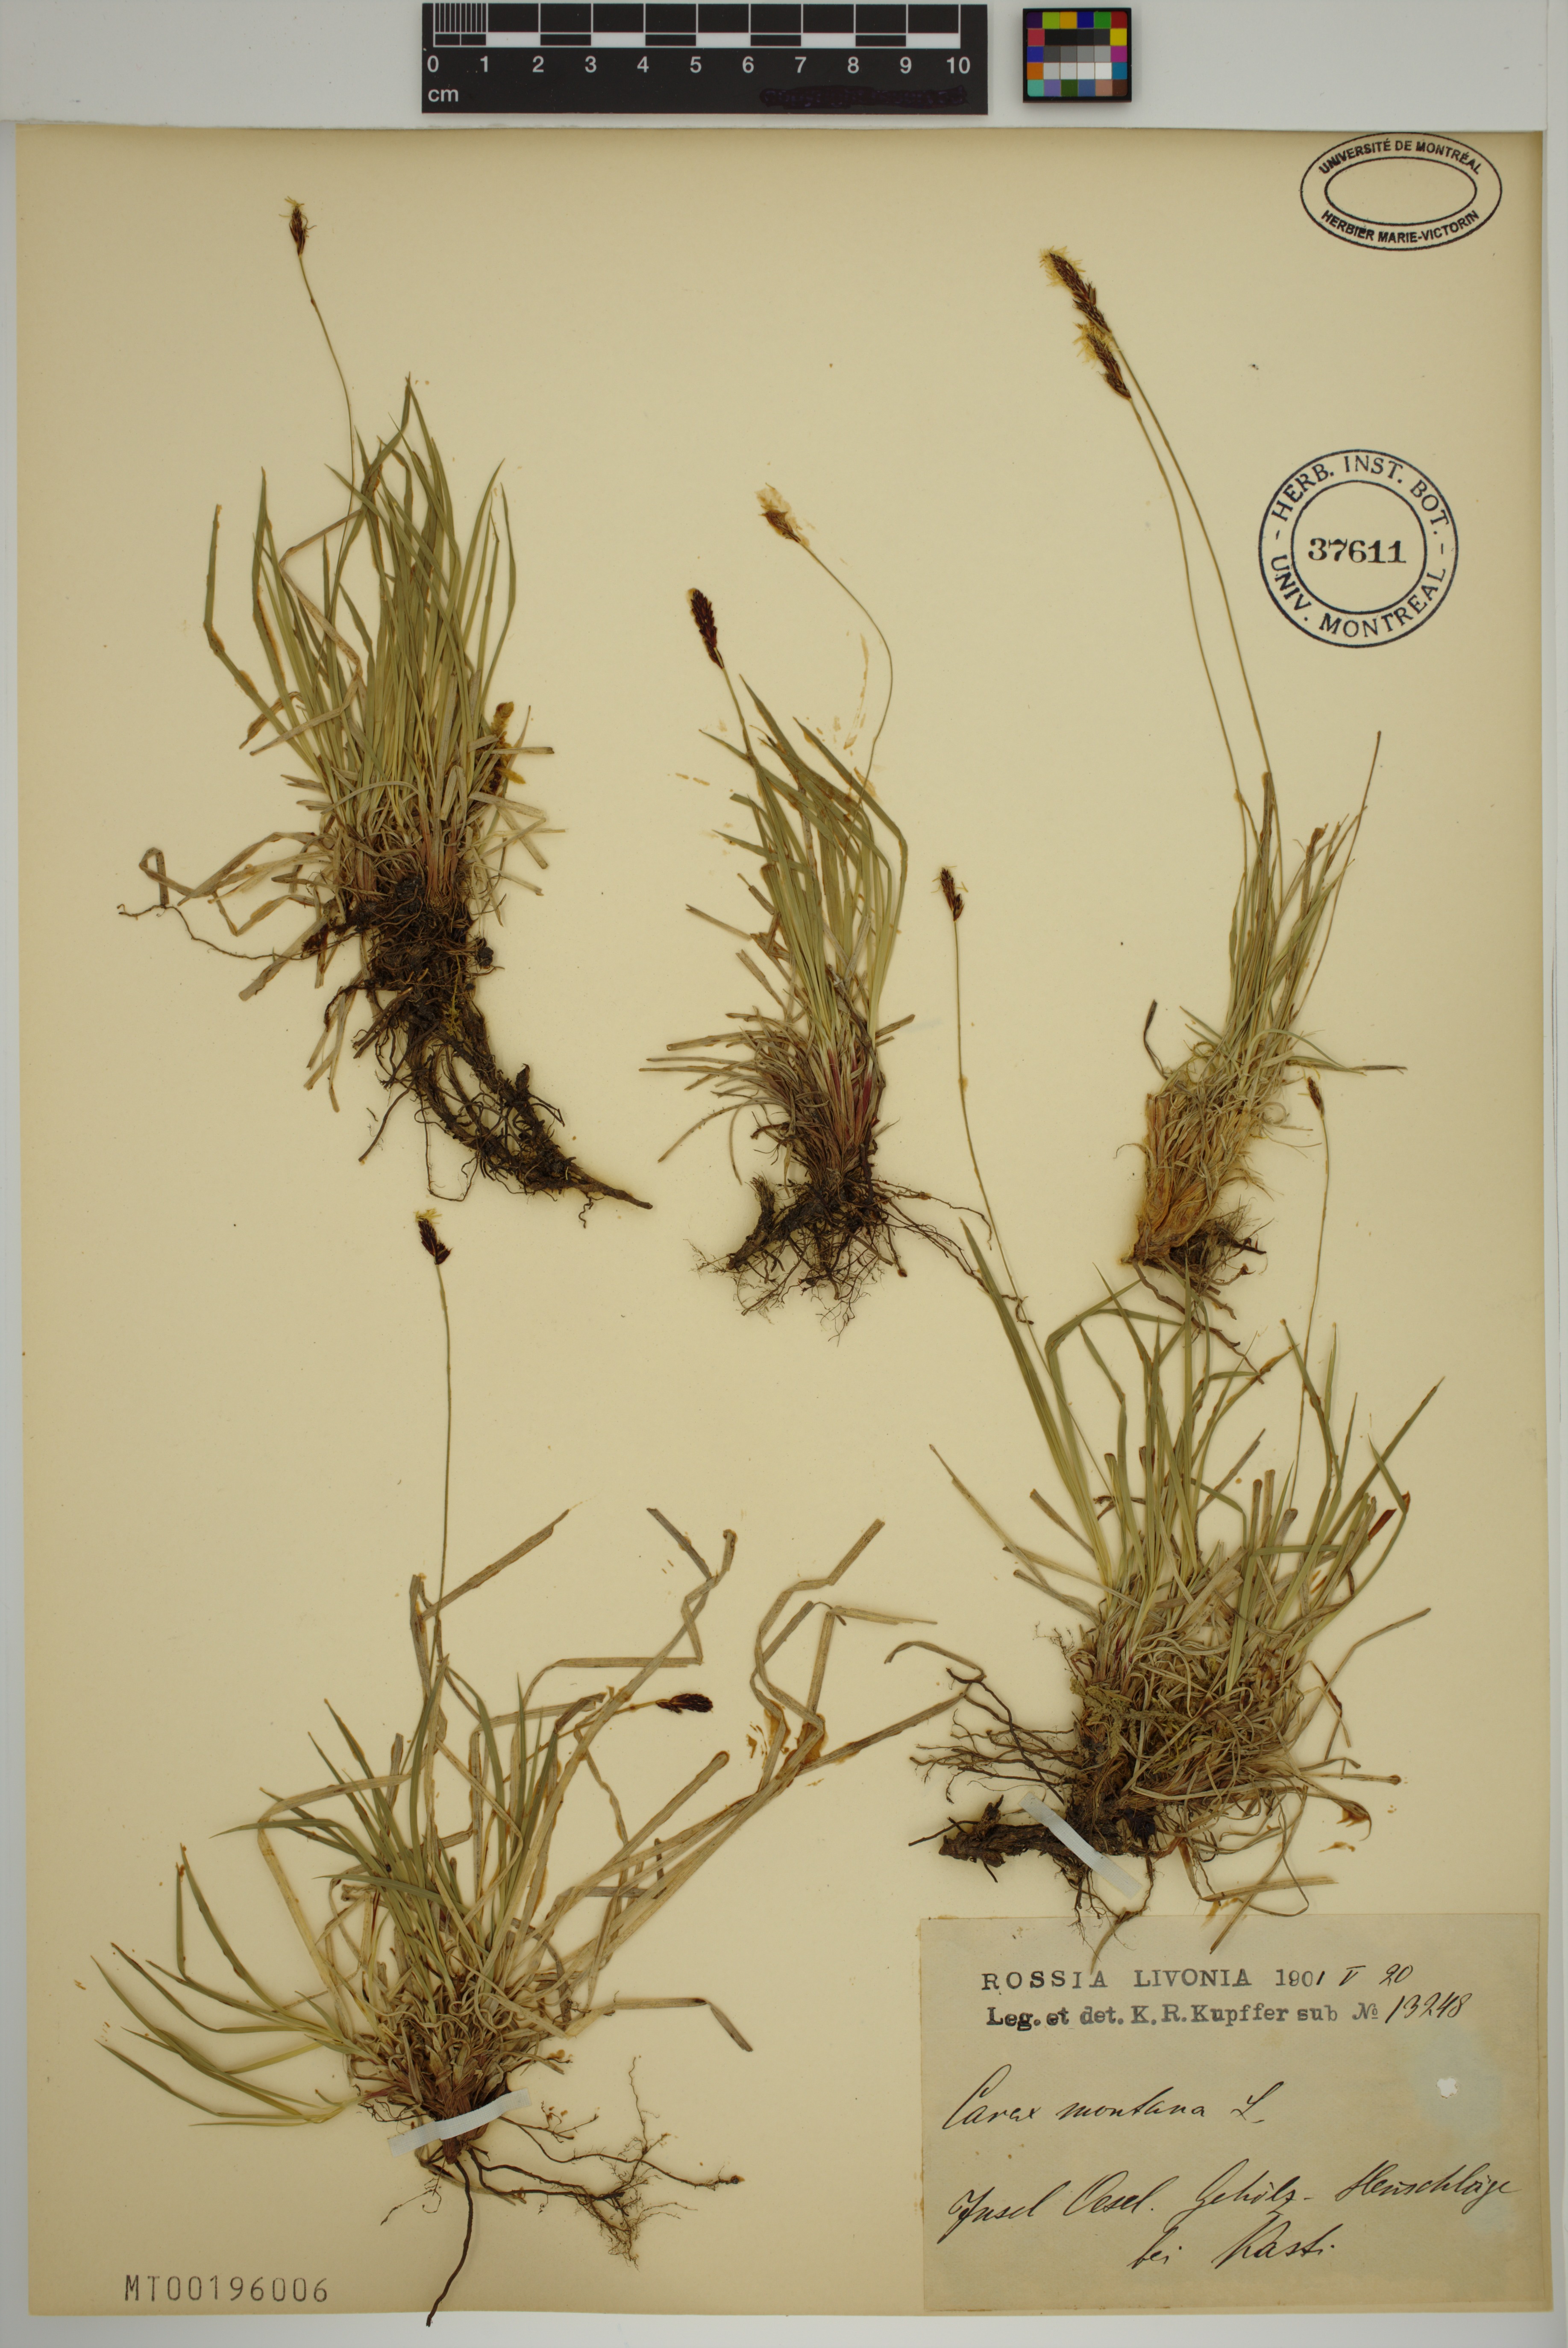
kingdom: Plantae
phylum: Tracheophyta
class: Liliopsida
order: Poales
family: Cyperaceae
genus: Carex
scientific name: Carex montana
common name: Soft-leaved sedge
